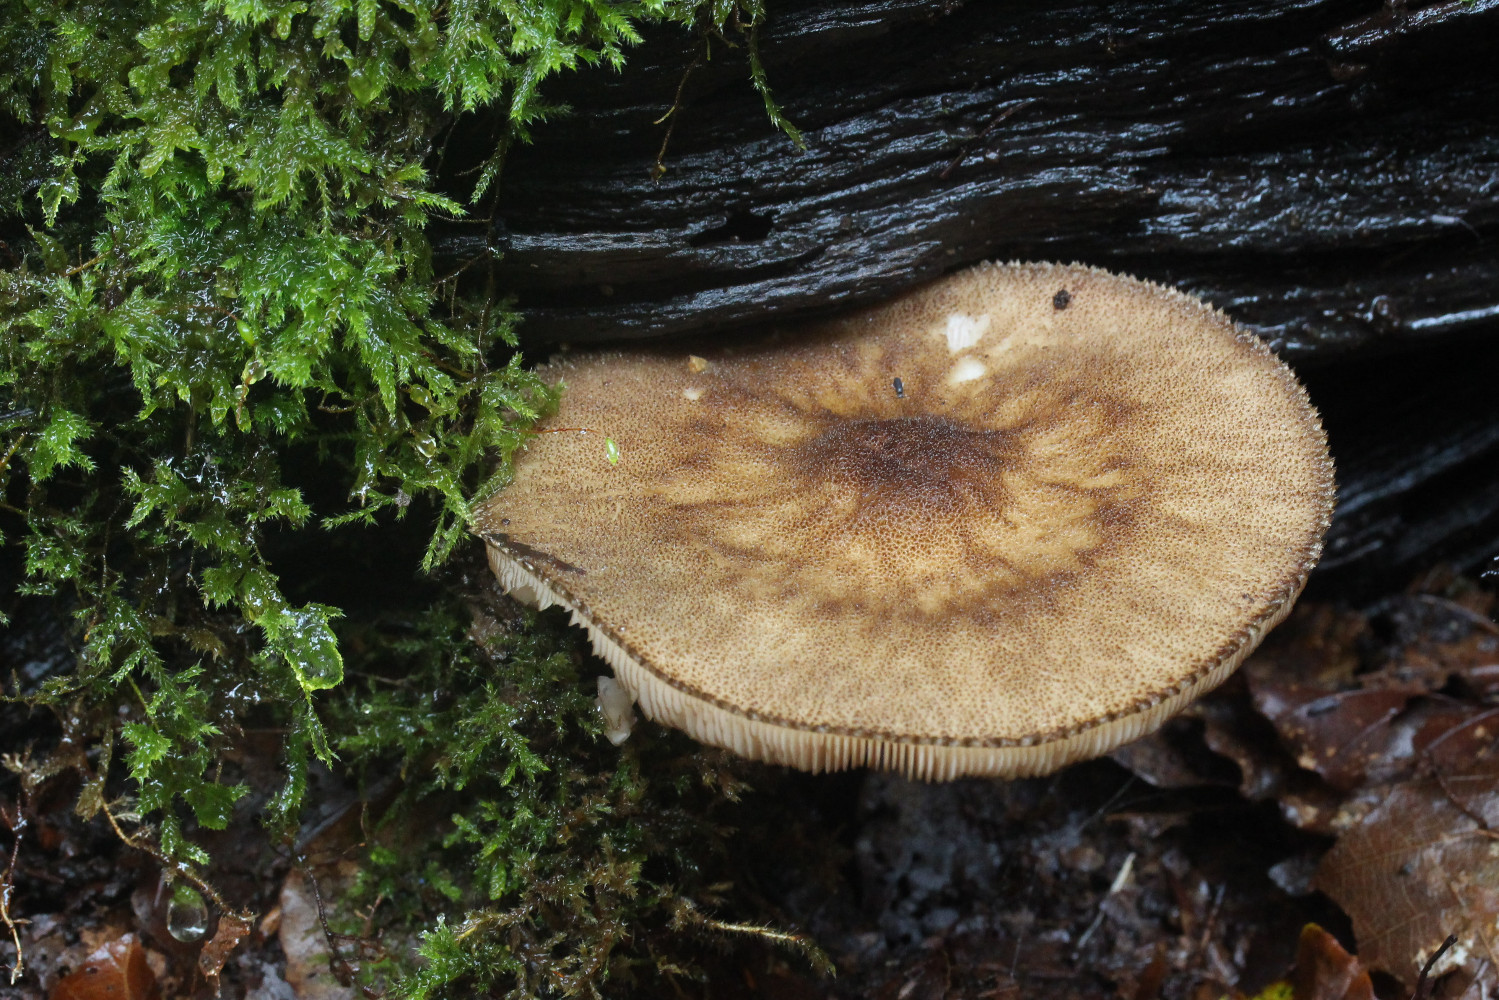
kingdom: Fungi
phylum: Basidiomycota
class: Agaricomycetes
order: Agaricales
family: Pluteaceae
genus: Pluteus
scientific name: Pluteus umbrosus
